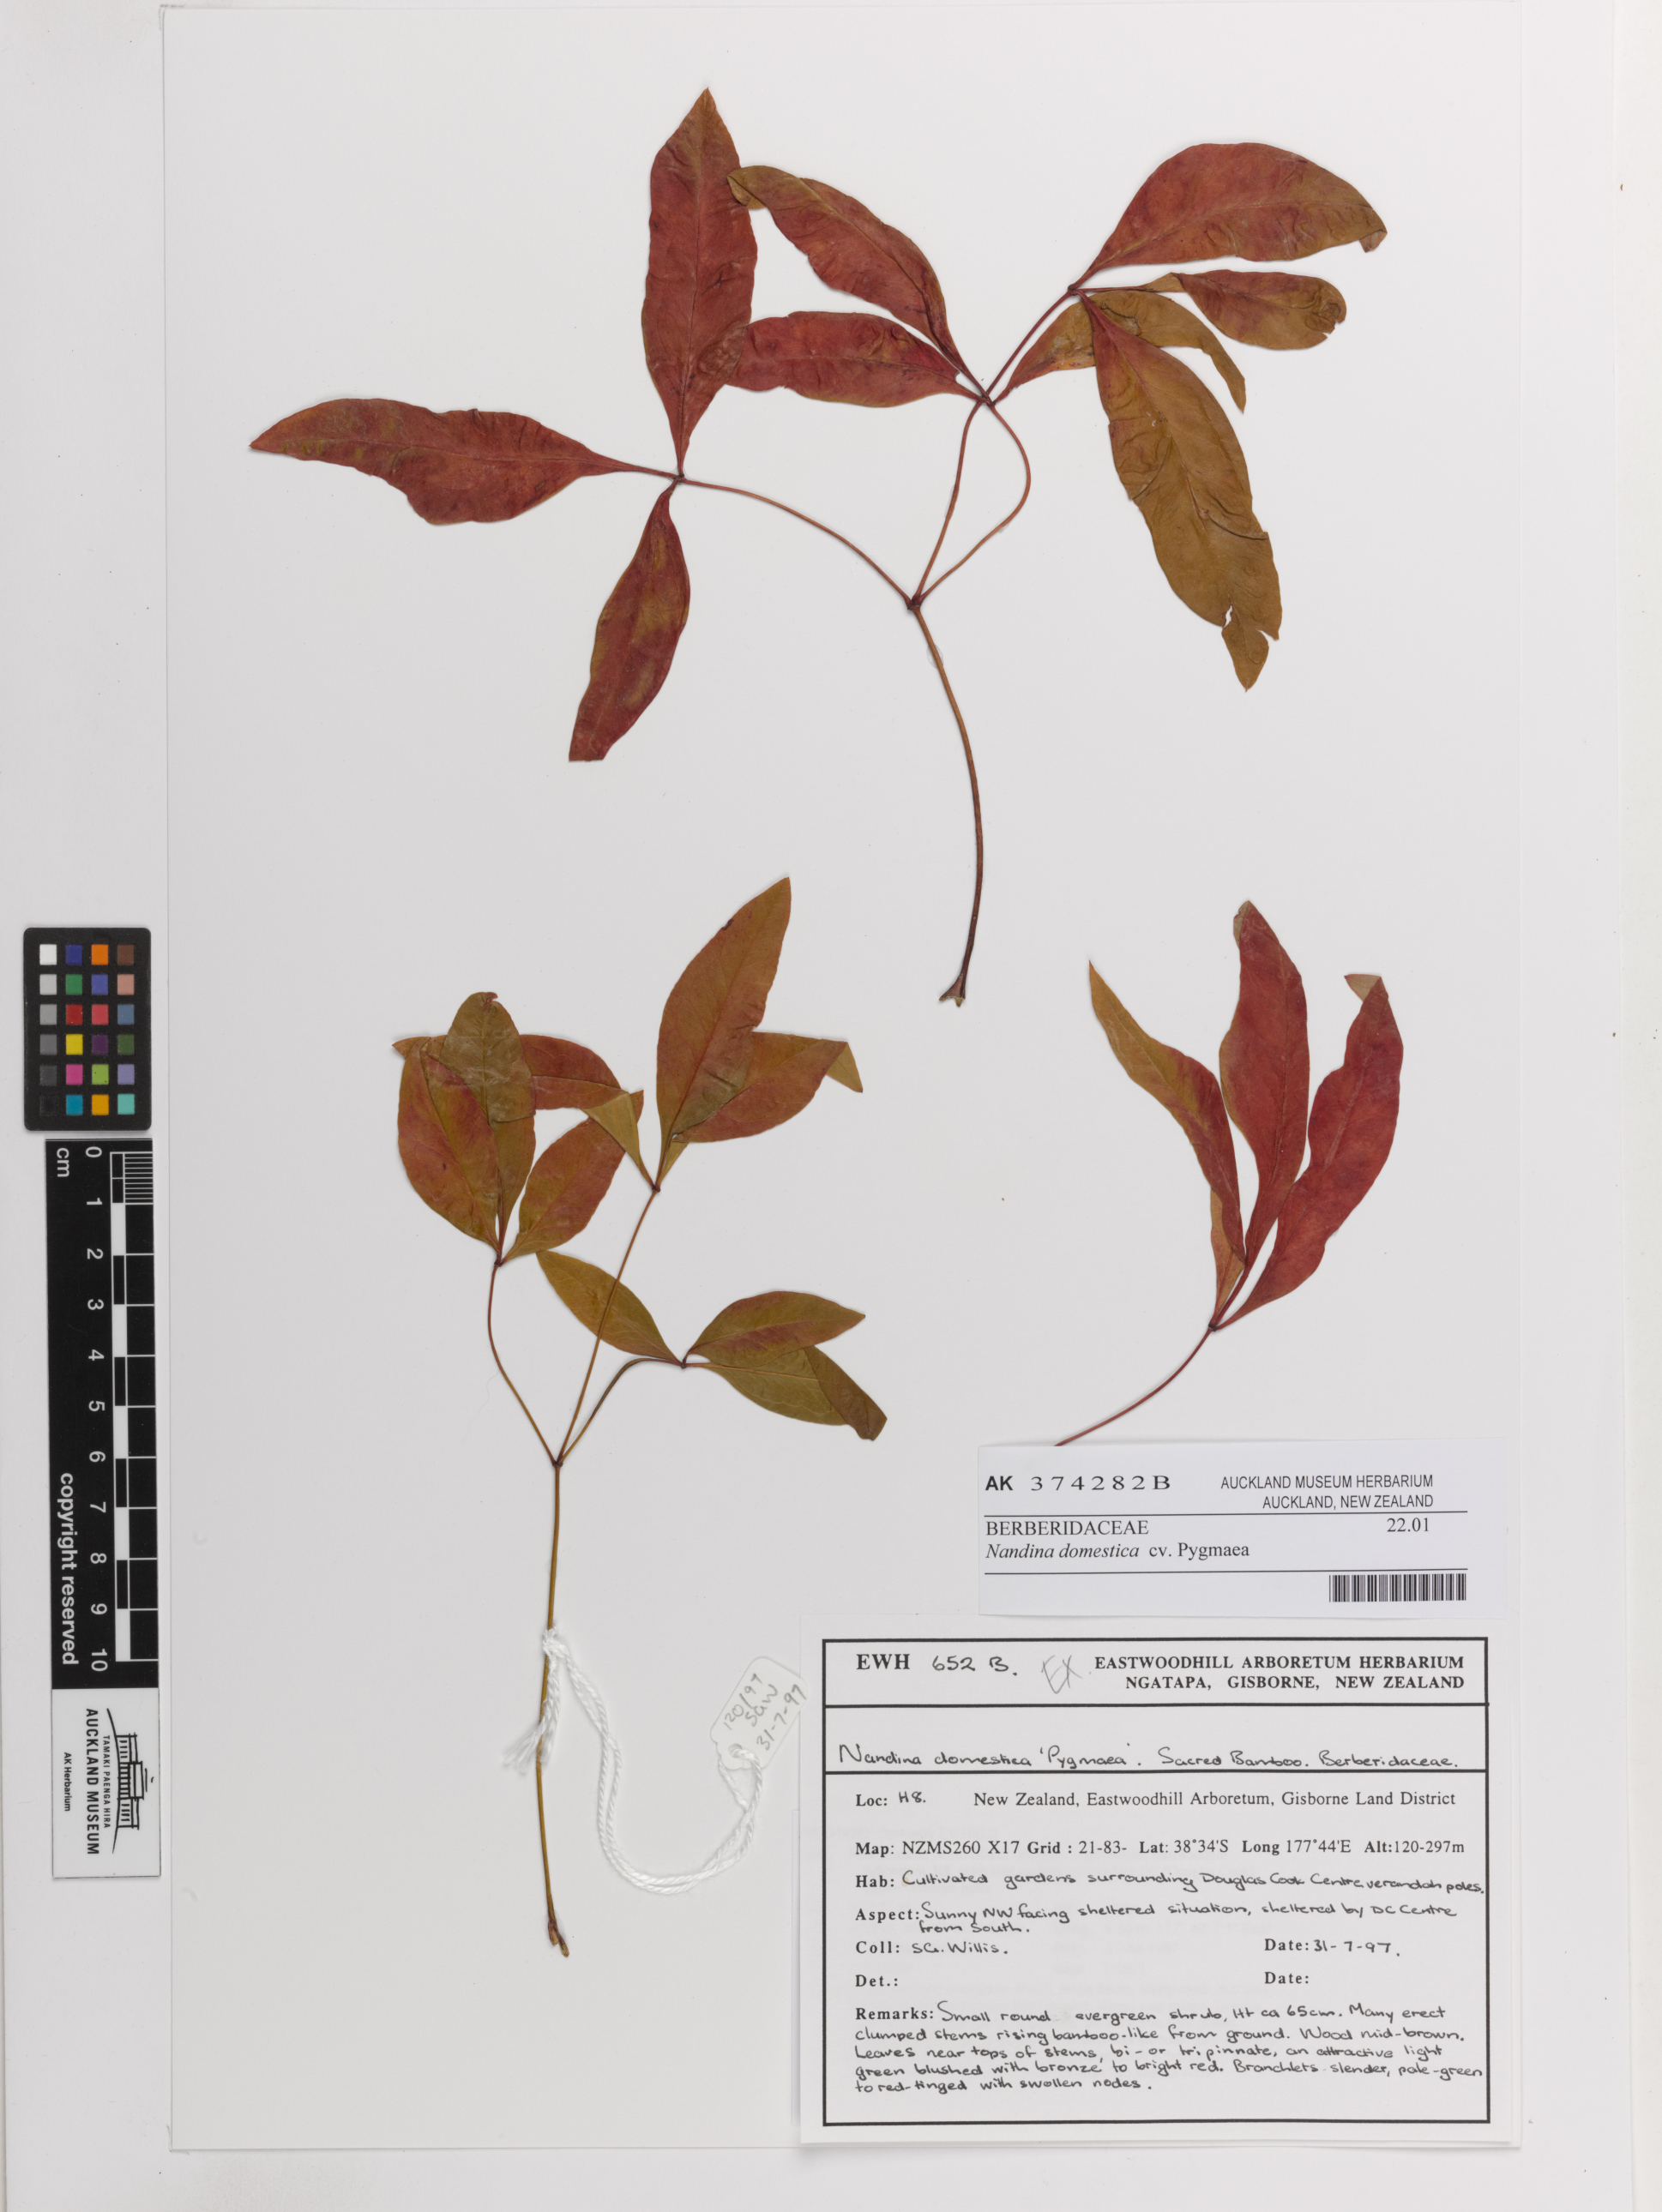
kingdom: Plantae
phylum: Tracheophyta
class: Magnoliopsida
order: Ranunculales
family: Berberidaceae
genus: Nandina
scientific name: Nandina domestica
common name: Sacred bamboo
